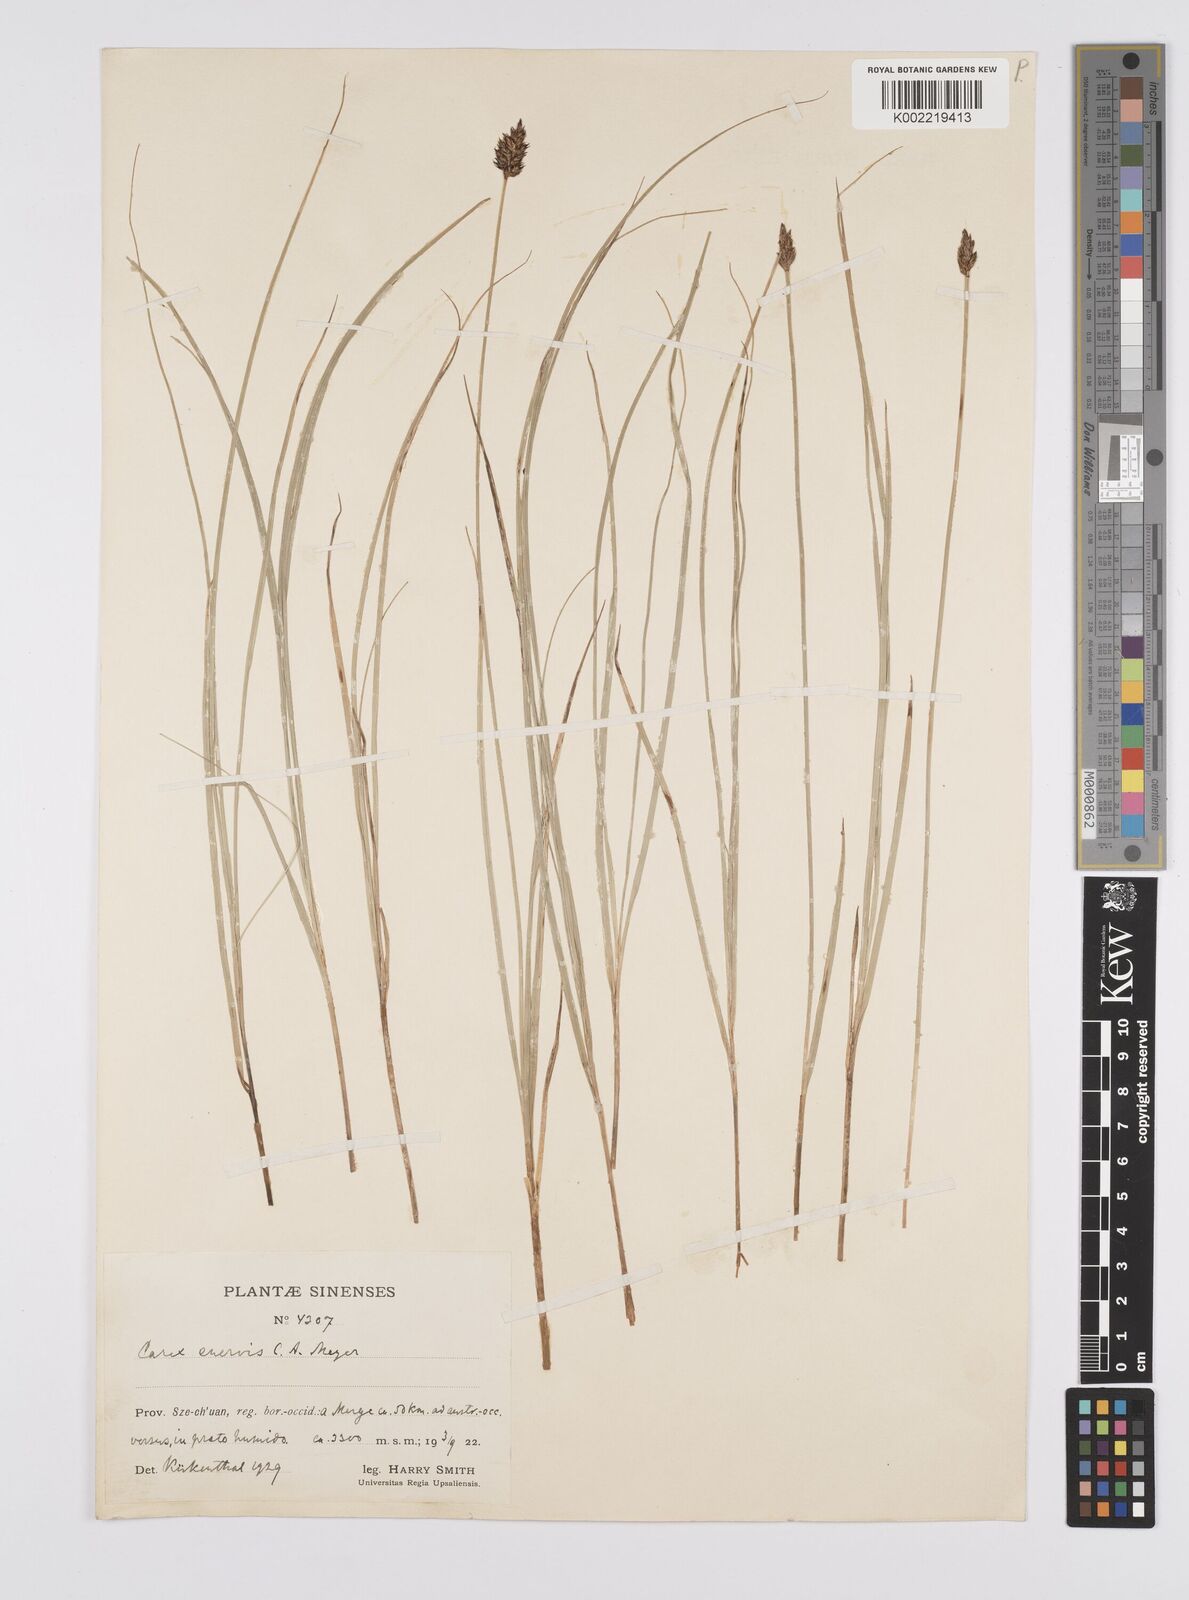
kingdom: Plantae
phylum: Tracheophyta
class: Liliopsida
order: Poales
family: Cyperaceae
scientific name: Cyperaceae
